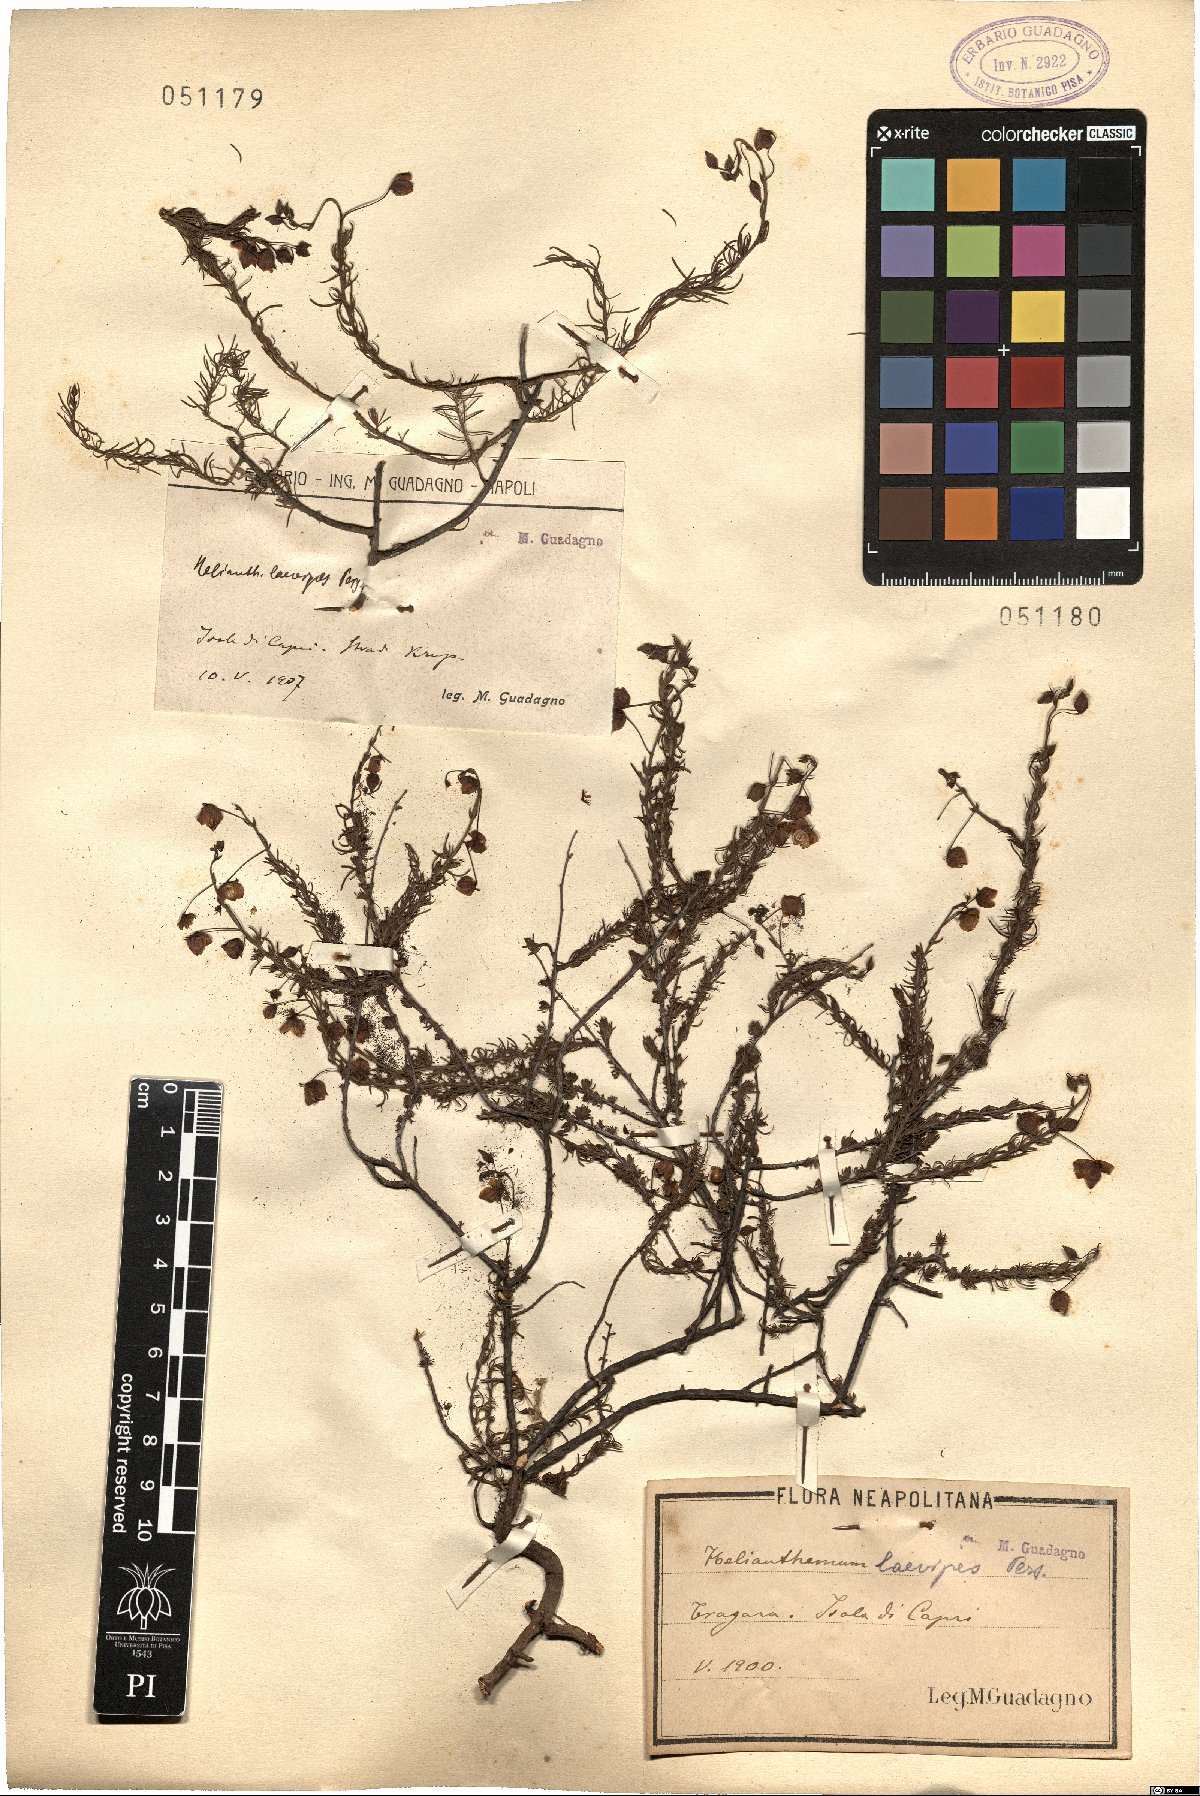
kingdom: Plantae
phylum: Tracheophyta
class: Magnoliopsida
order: Malvales
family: Cistaceae
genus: Fumana
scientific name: Fumana laevipes
